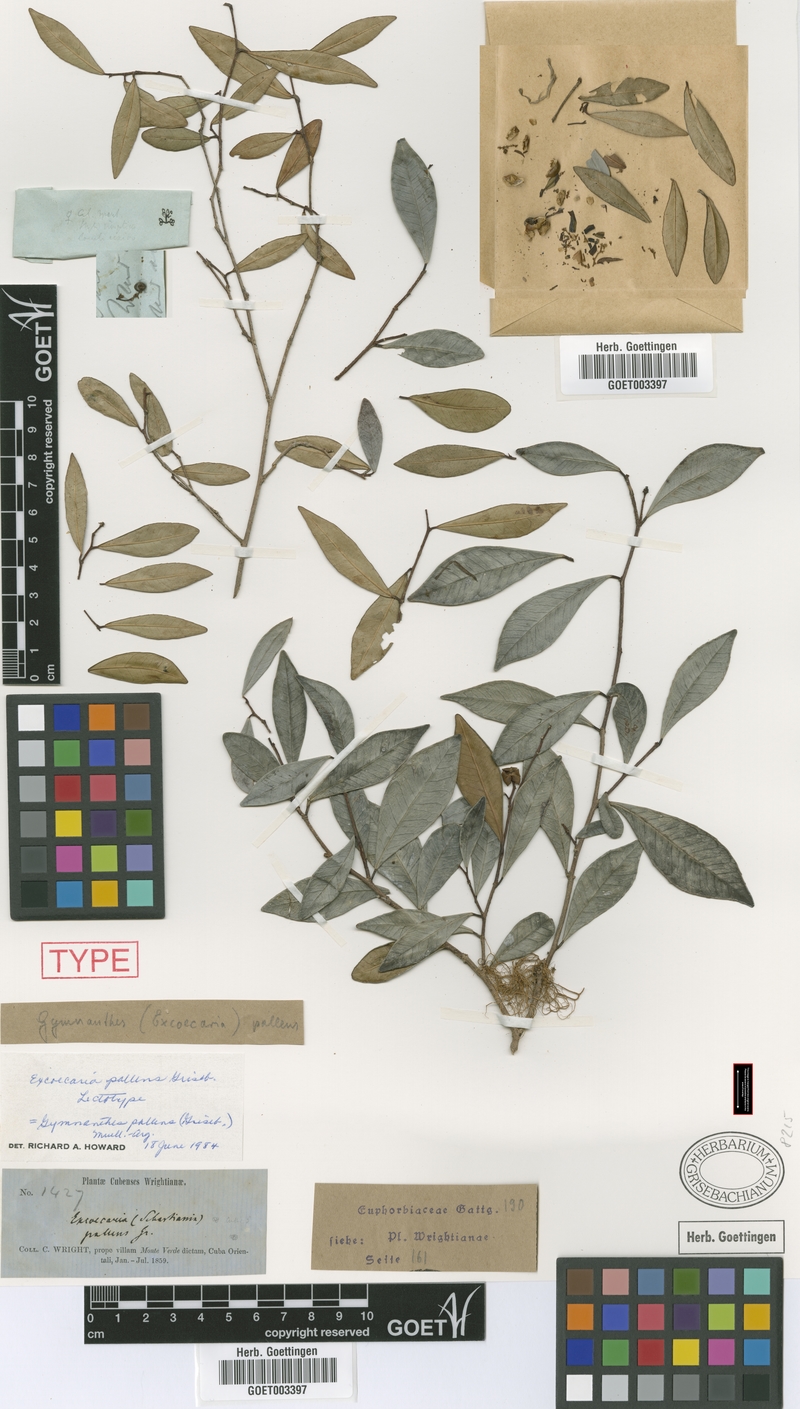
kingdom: Plantae
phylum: Tracheophyta
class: Magnoliopsida
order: Malpighiales
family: Euphorbiaceae
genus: Gymnanthes
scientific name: Gymnanthes pallens
